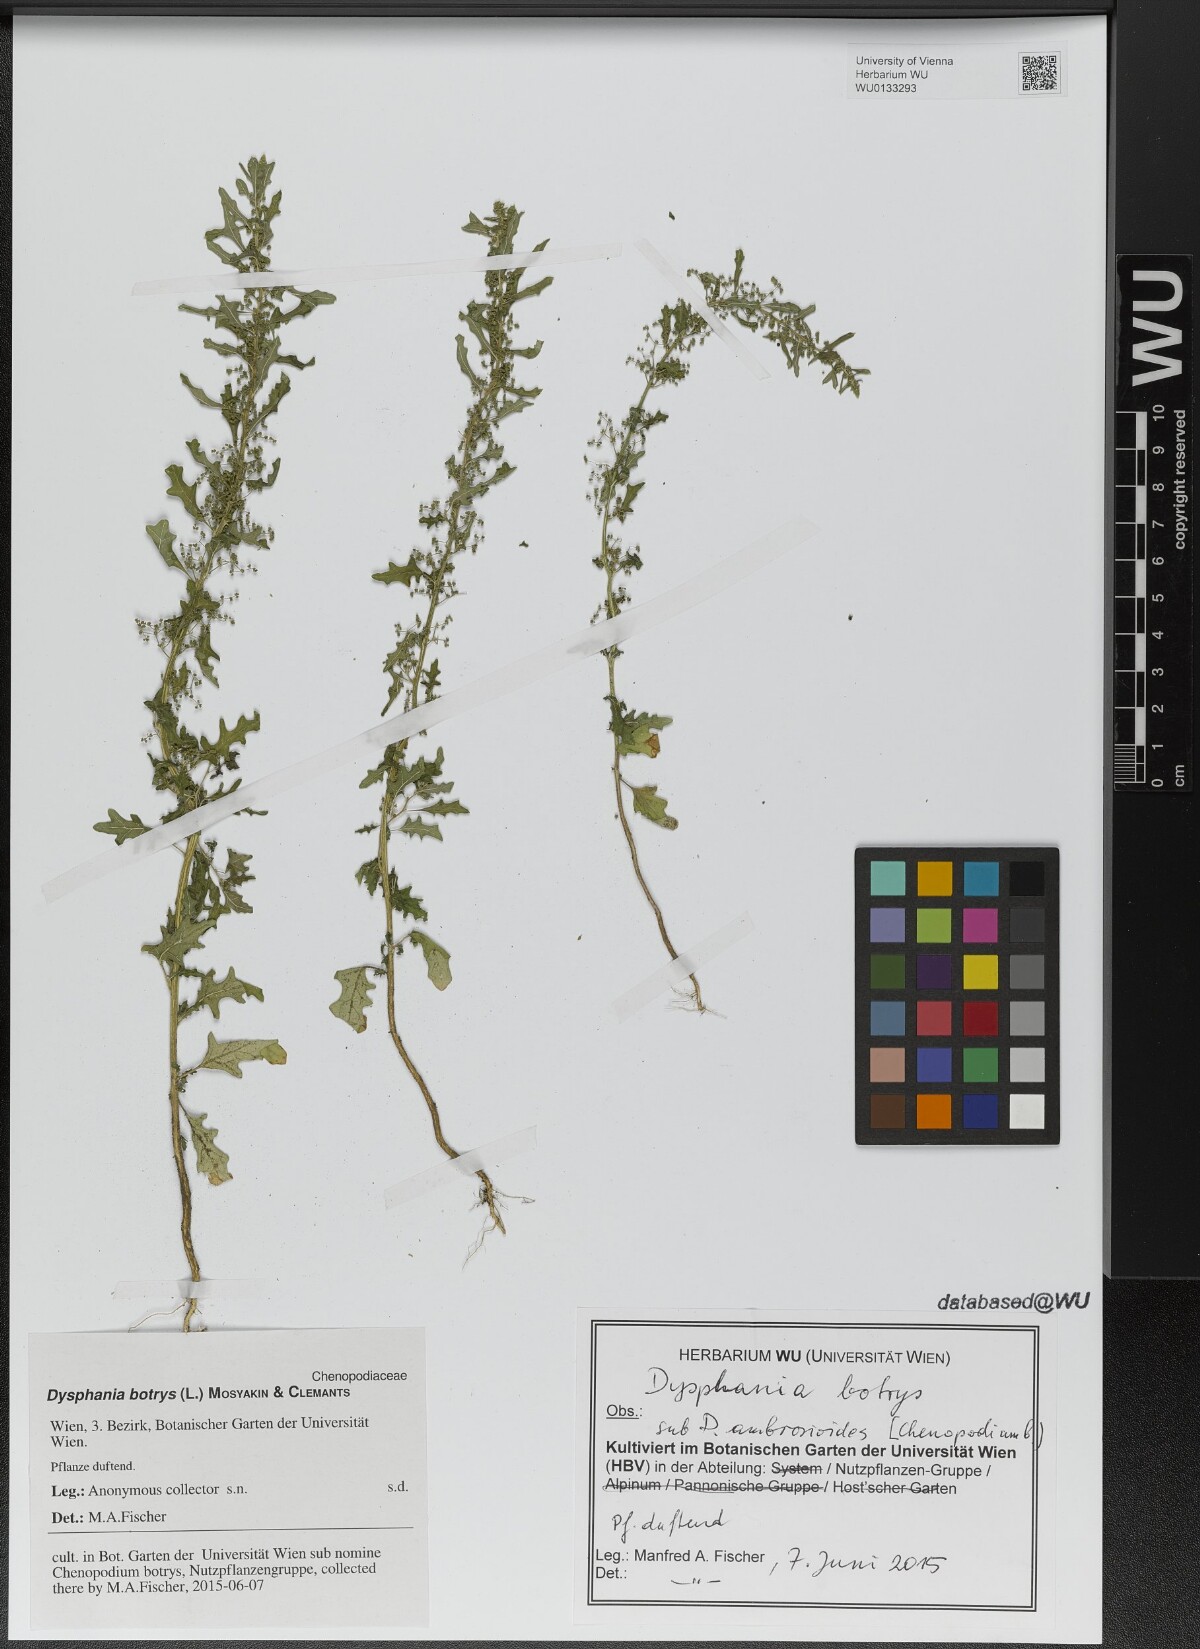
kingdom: Plantae
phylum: Tracheophyta
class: Magnoliopsida
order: Caryophyllales
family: Amaranthaceae
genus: Dysphania
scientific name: Dysphania botrys
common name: Feather-geranium
